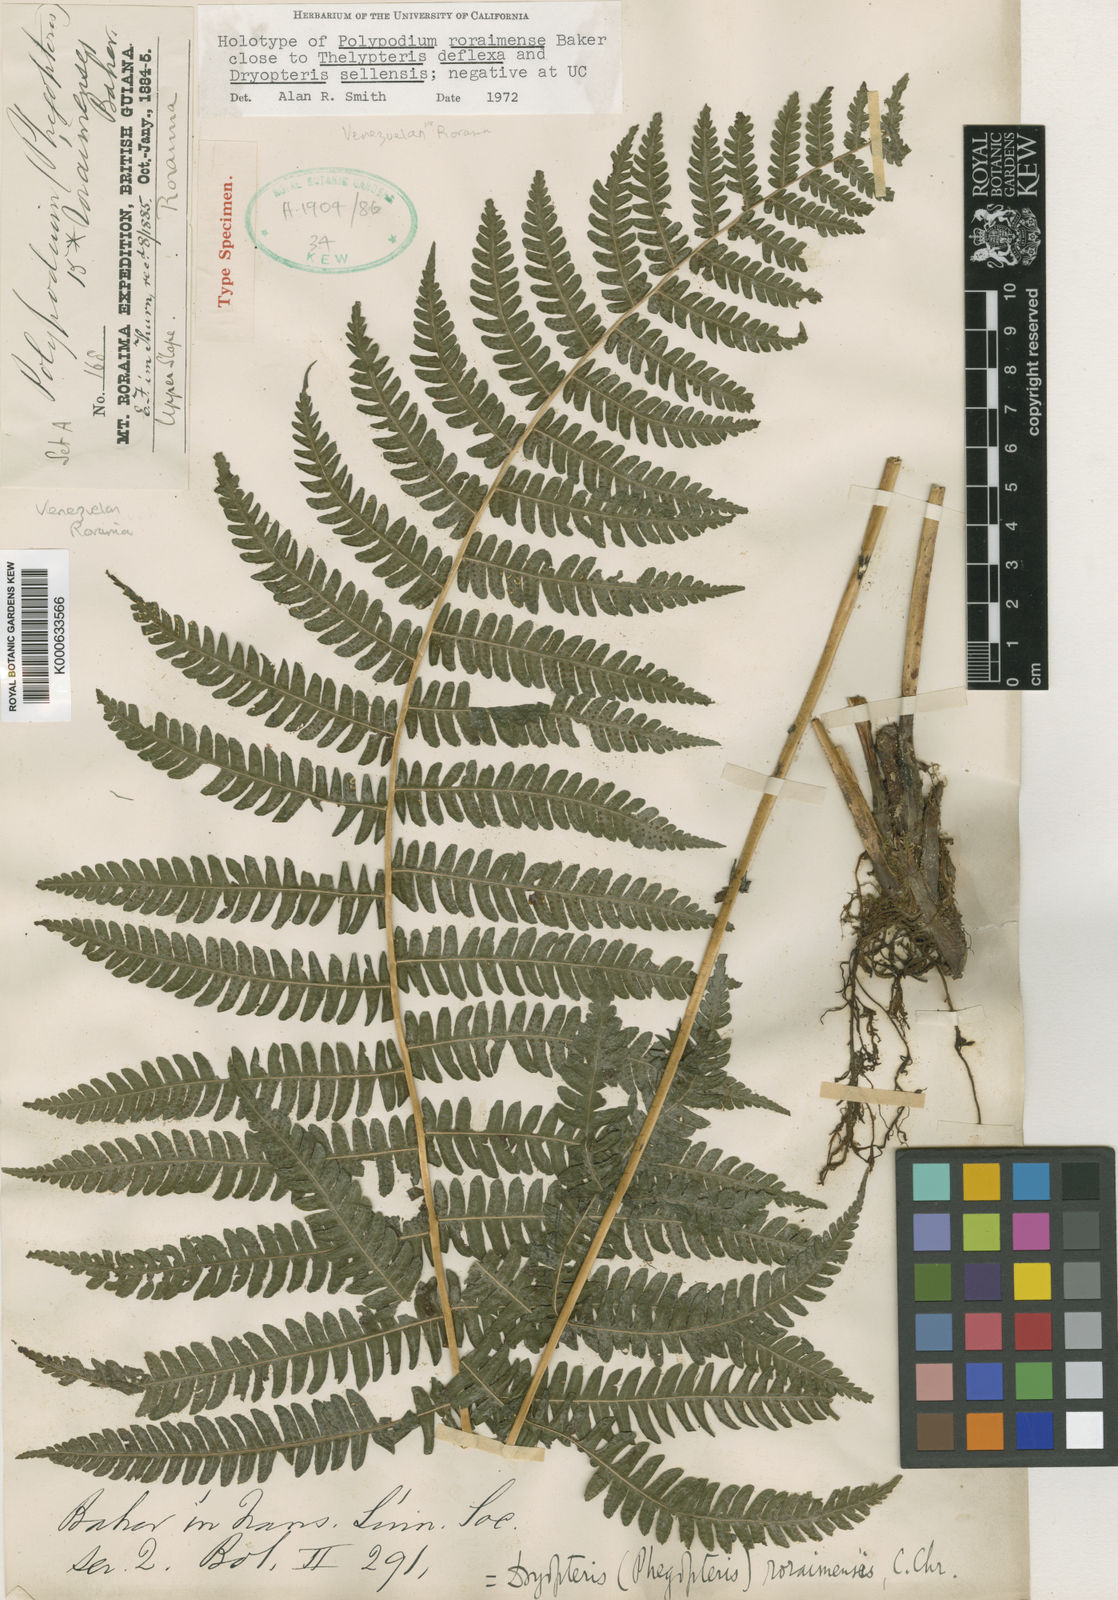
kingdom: Plantae
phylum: Tracheophyta
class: Polypodiopsida
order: Polypodiales
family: Thelypteridaceae
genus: Amauropelta
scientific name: Amauropelta roraimensis
